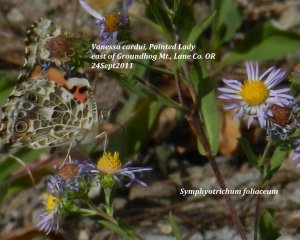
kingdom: Animalia
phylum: Arthropoda
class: Insecta
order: Lepidoptera
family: Nymphalidae
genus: Vanessa
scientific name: Vanessa cardui
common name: Painted Lady
